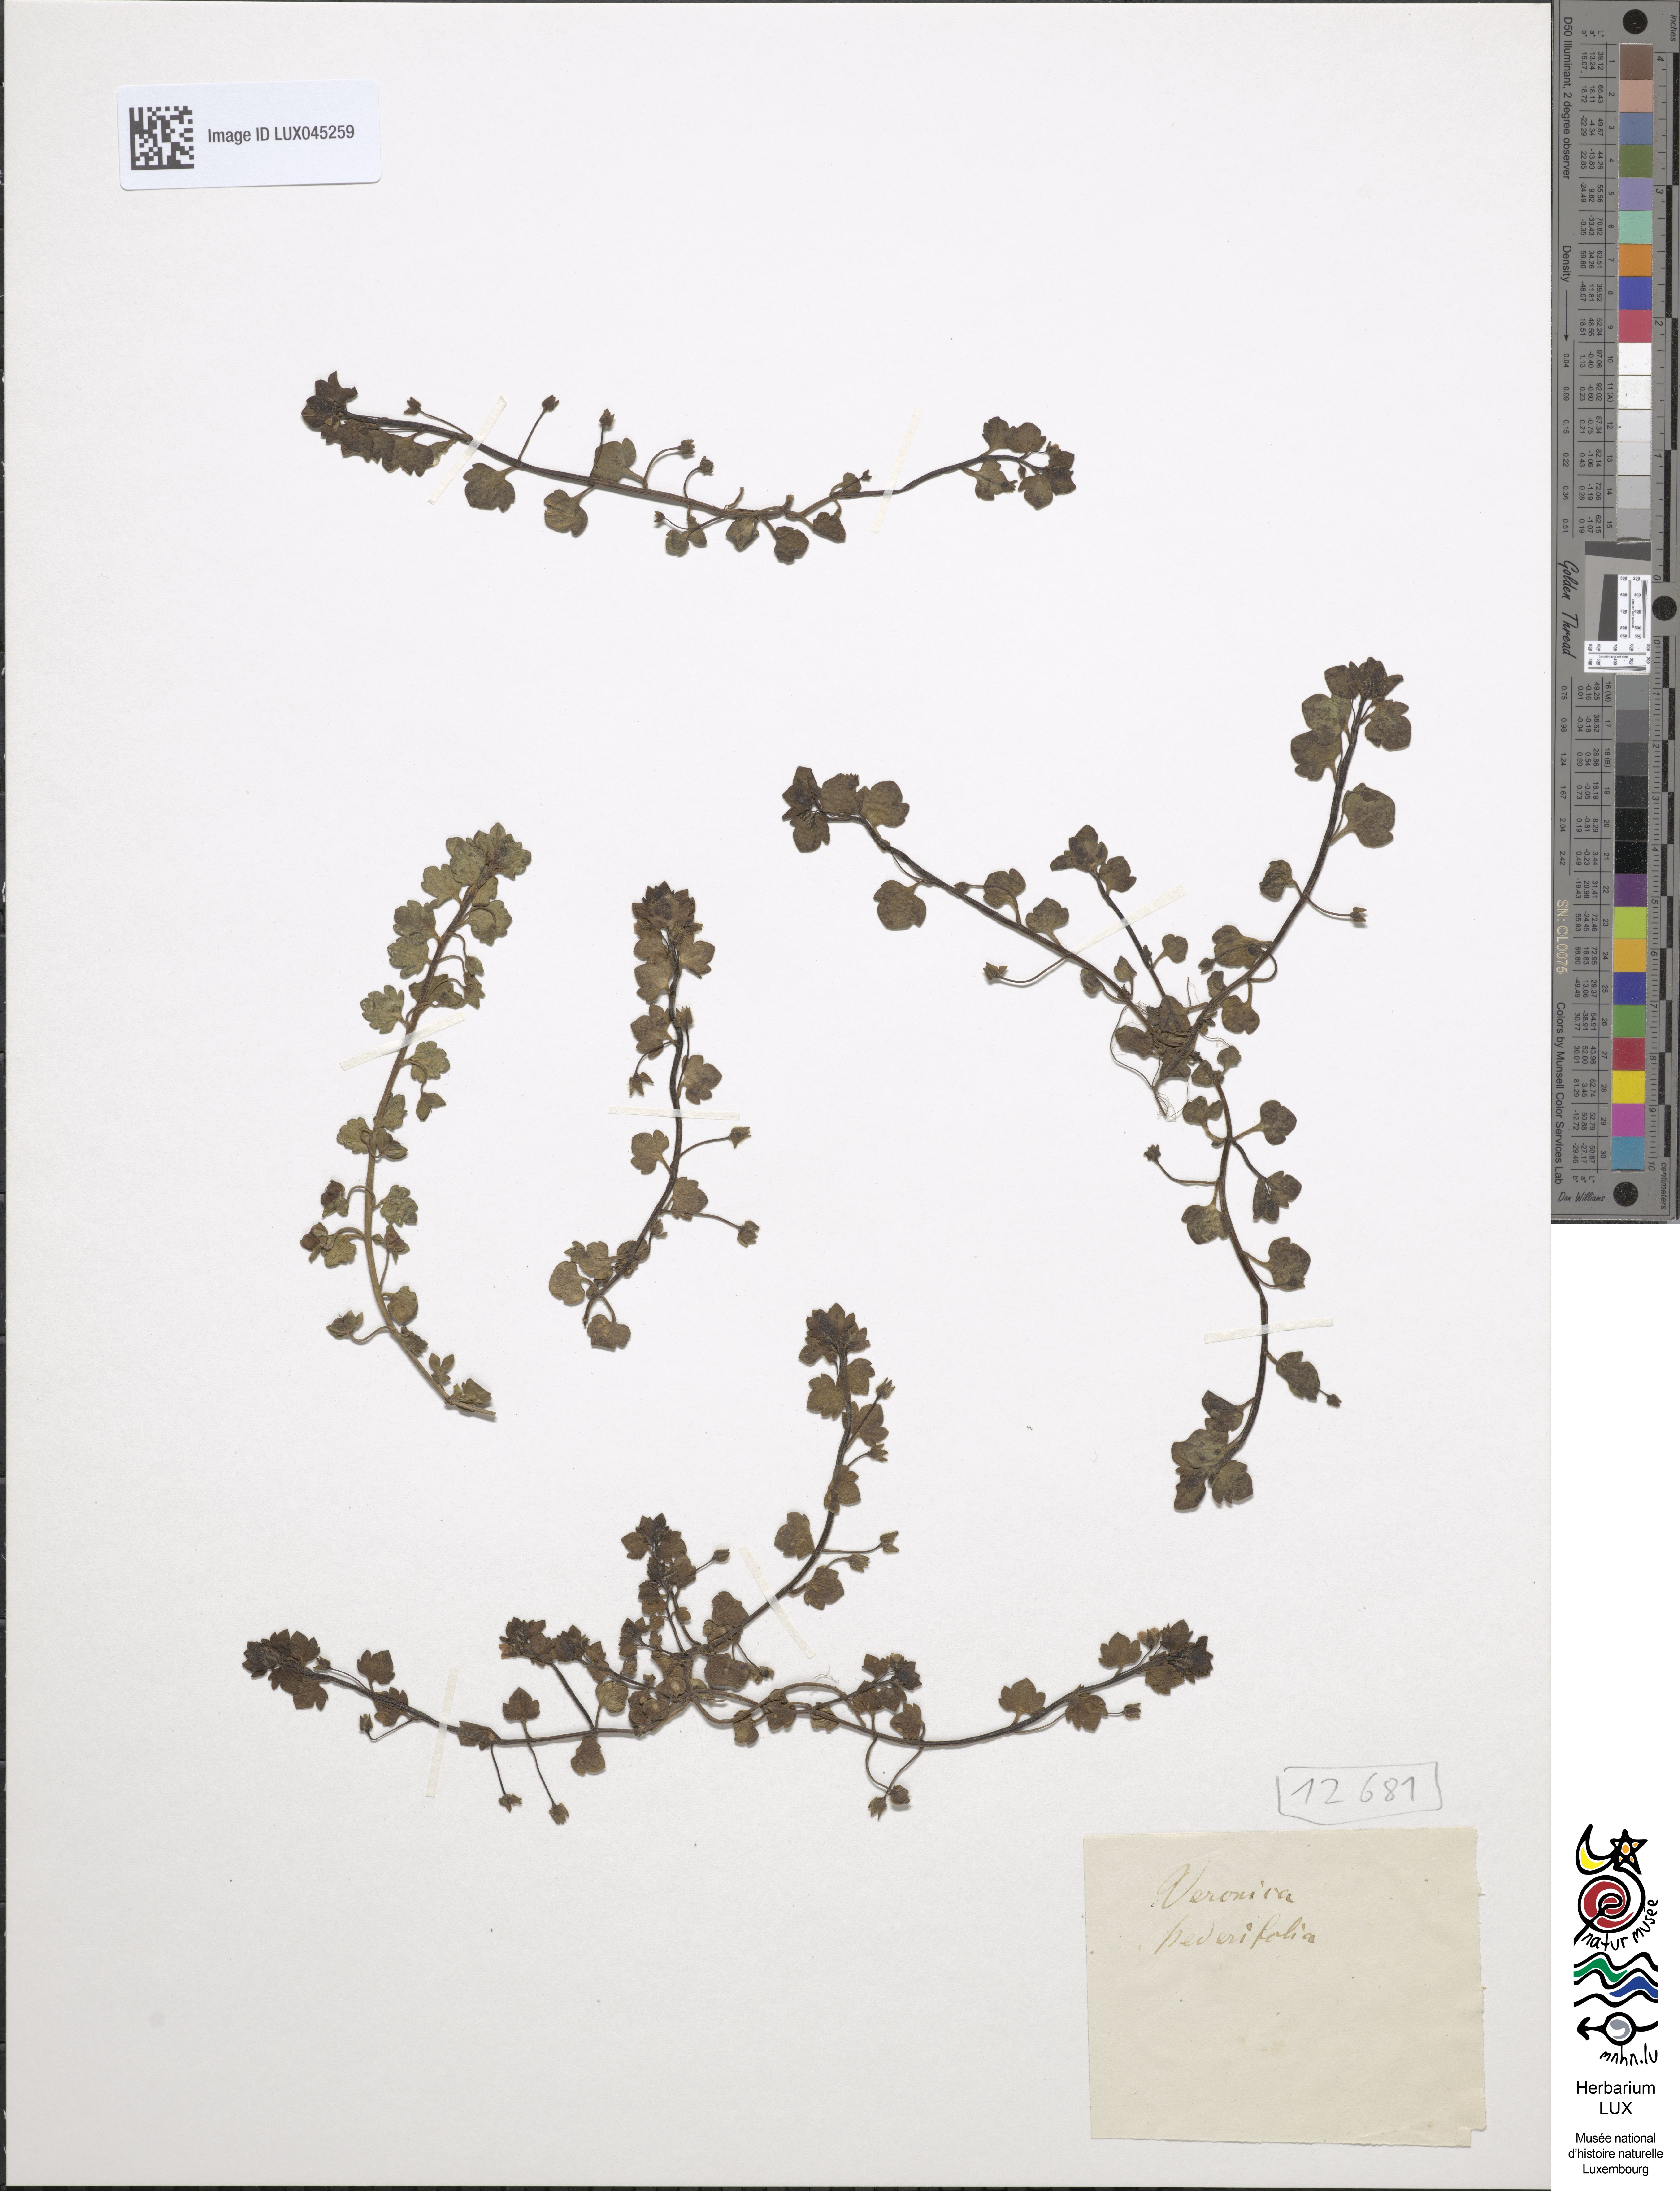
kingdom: Plantae
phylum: Tracheophyta
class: Magnoliopsida
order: Lamiales
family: Plantaginaceae
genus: Veronica
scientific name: Veronica hederifolia
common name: Ivy-leaved speedwell
